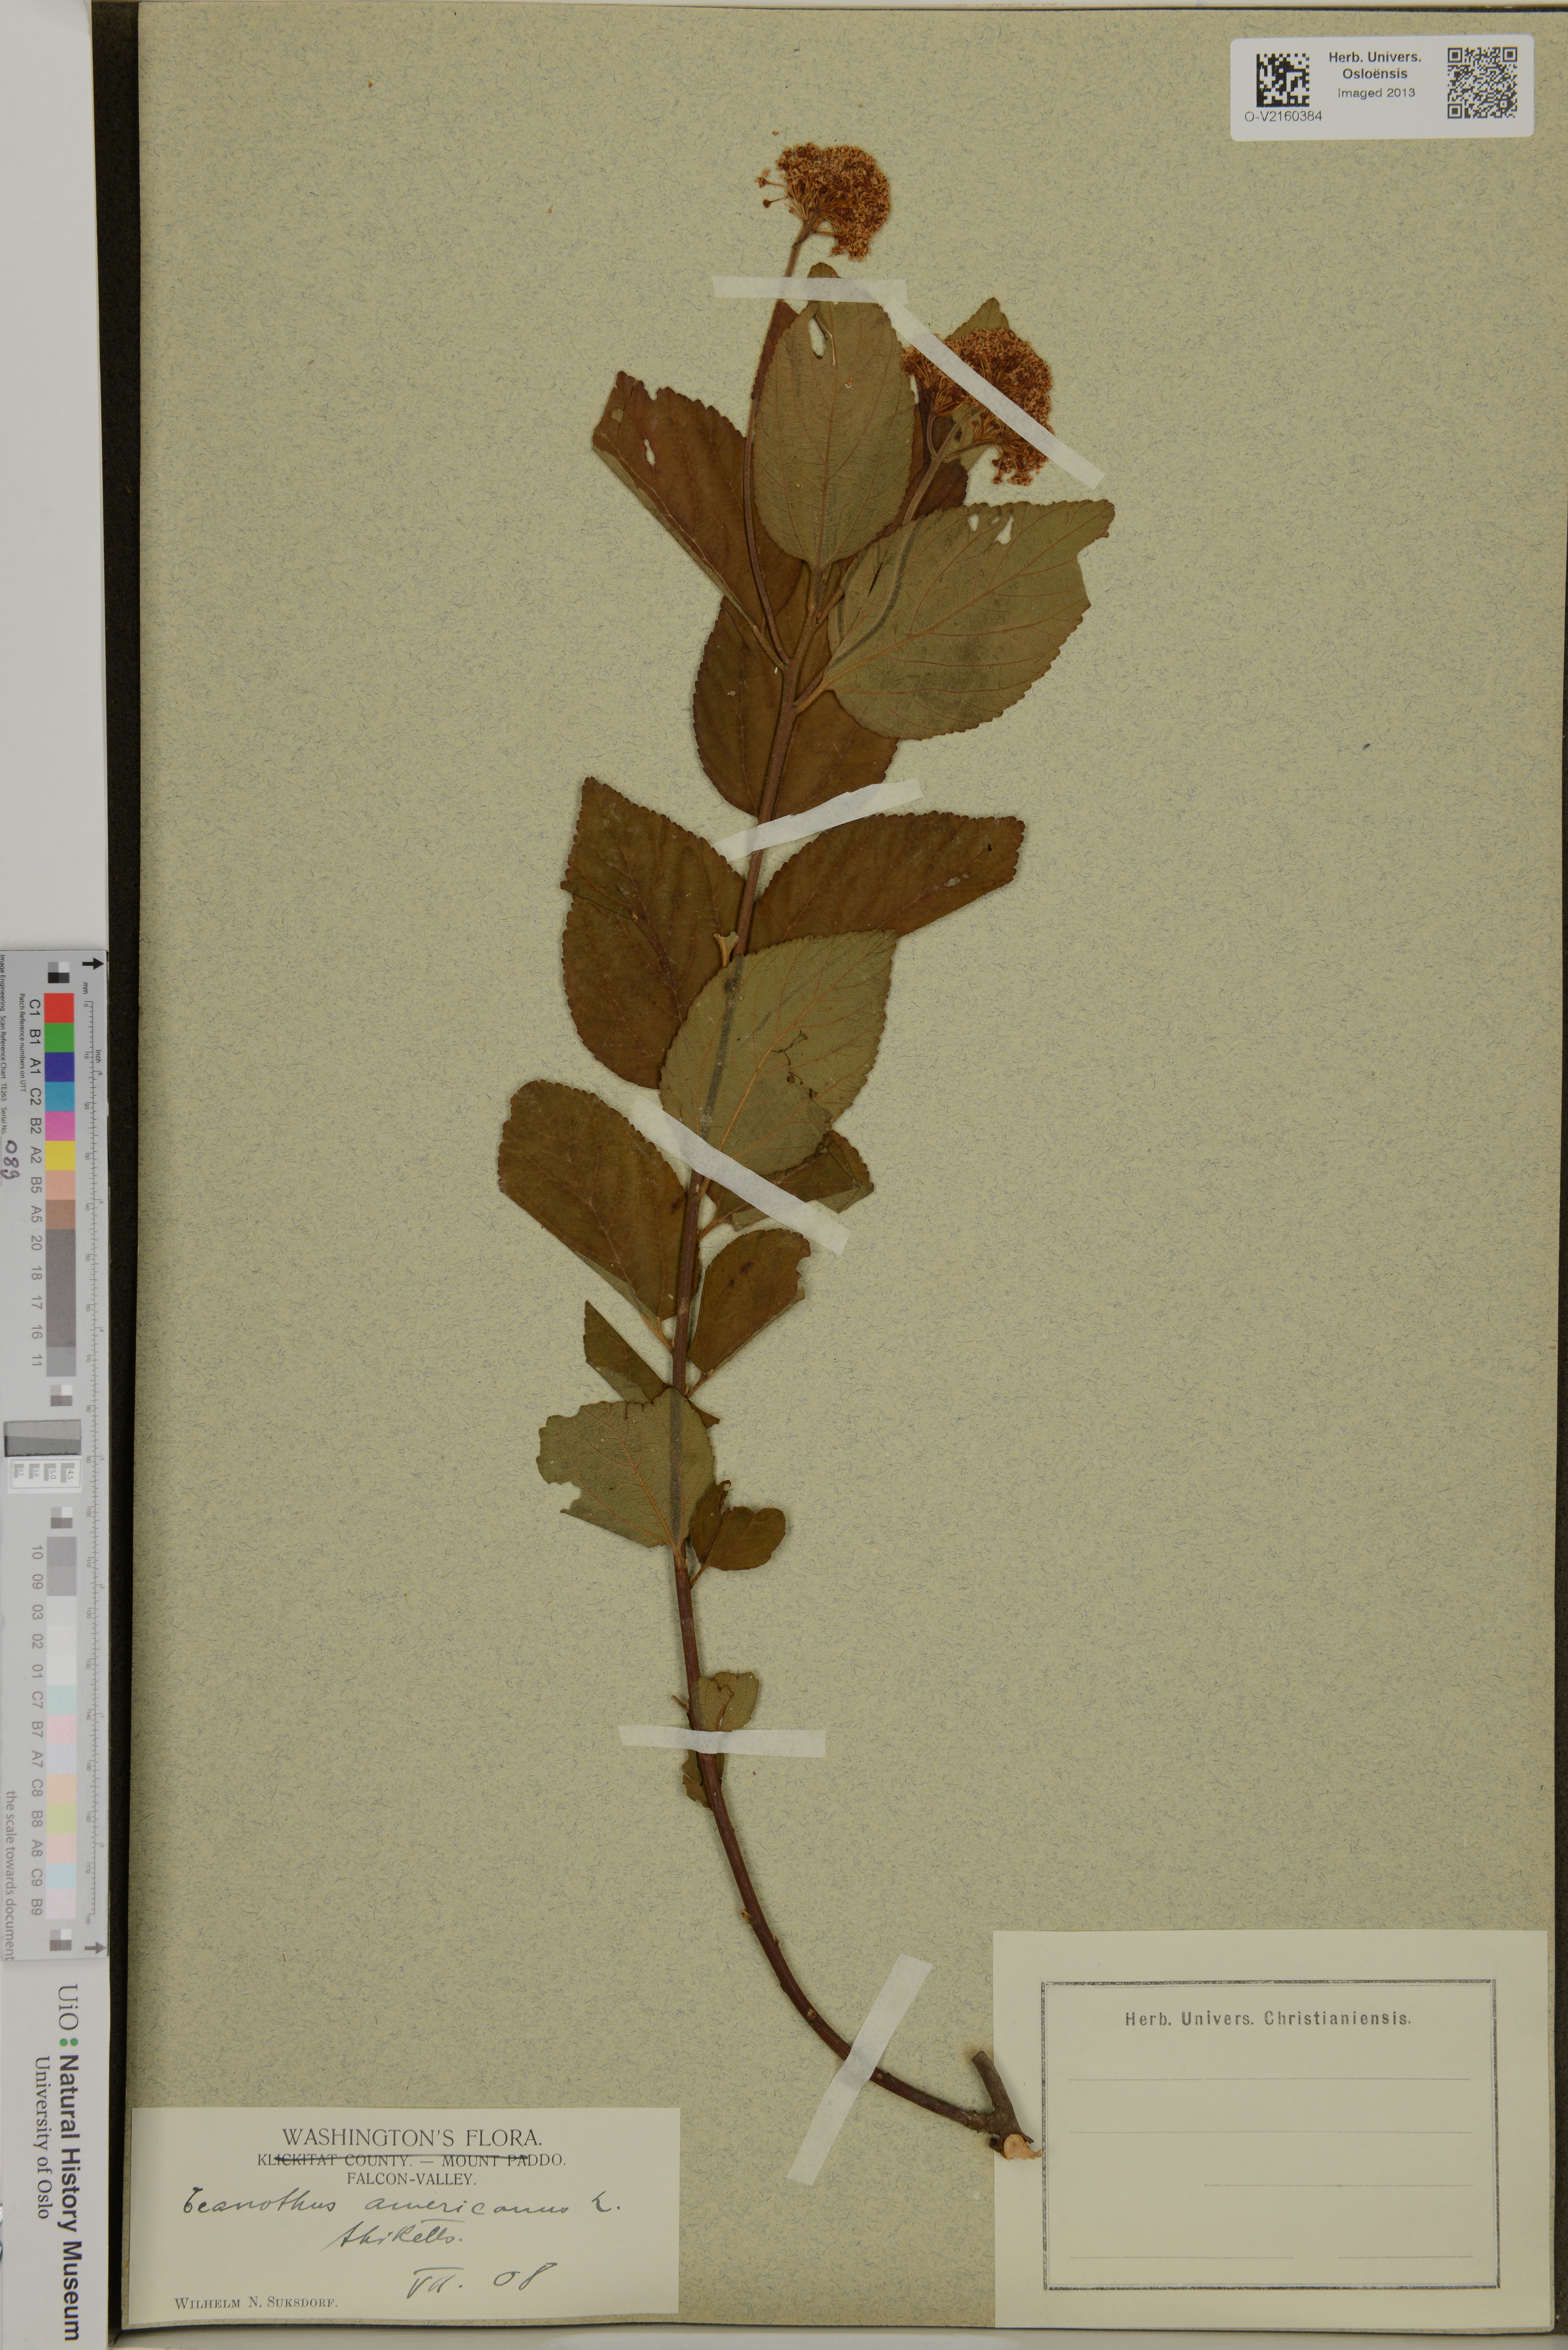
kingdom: Plantae
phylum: Tracheophyta
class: Magnoliopsida
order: Rosales
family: Rhamnaceae
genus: Ceanothus
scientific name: Ceanothus americanus
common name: Redroot
